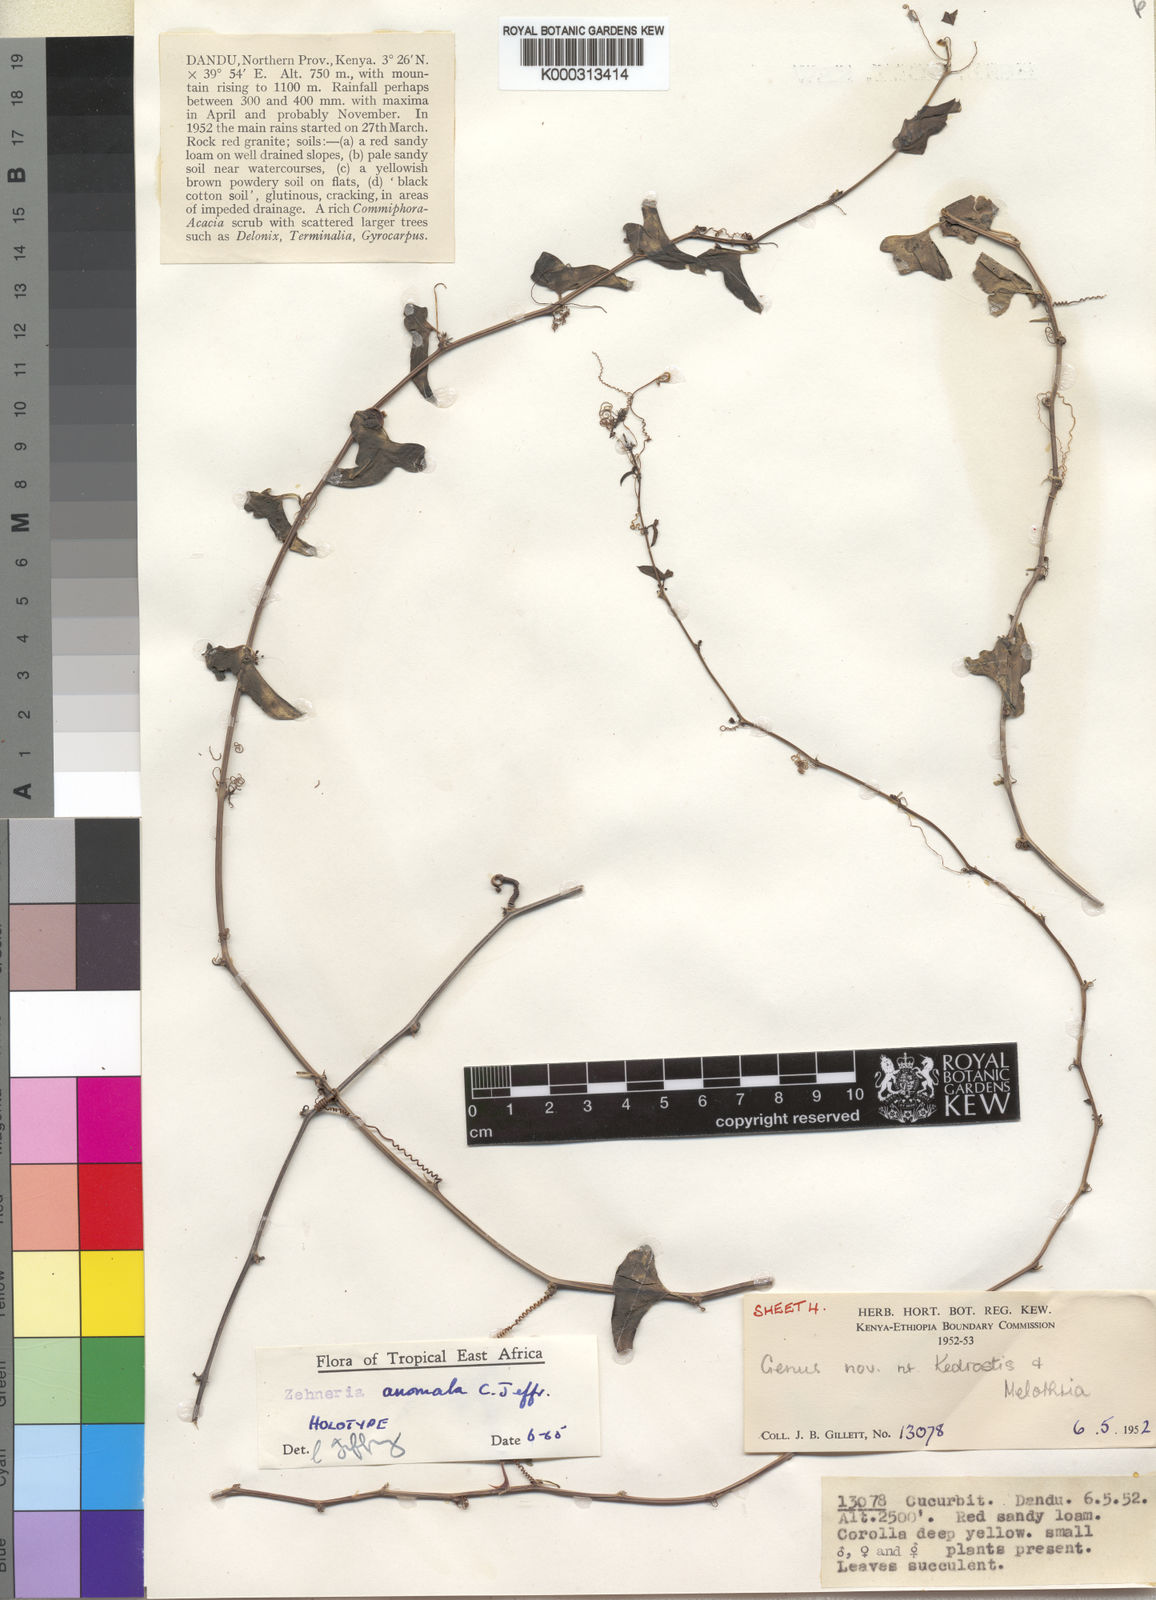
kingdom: Plantae
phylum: Tracheophyta
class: Magnoliopsida
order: Cucurbitales
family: Cucurbitaceae
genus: Zehneria
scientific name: Zehneria anomala
